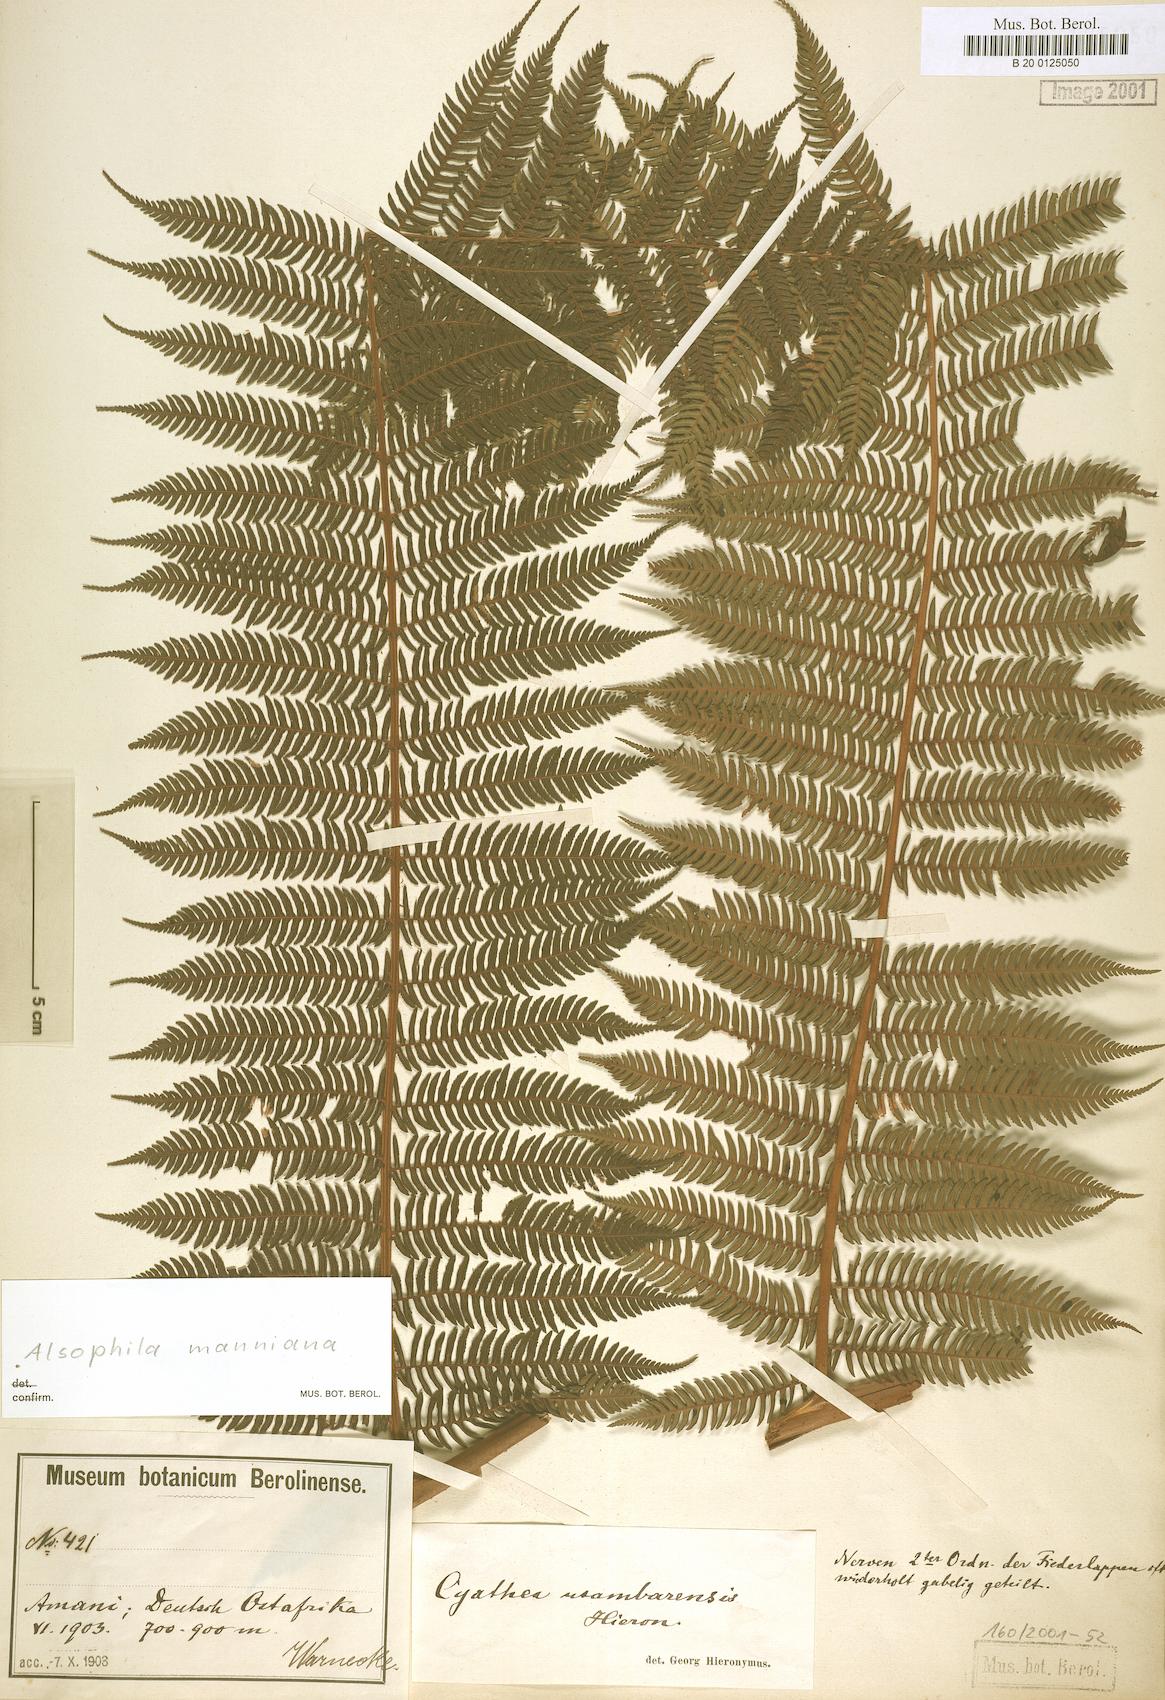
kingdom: Plantae
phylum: Tracheophyta
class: Polypodiopsida
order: Cyatheales
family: Cyatheaceae
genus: Alsophila
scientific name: Alsophila manniana
